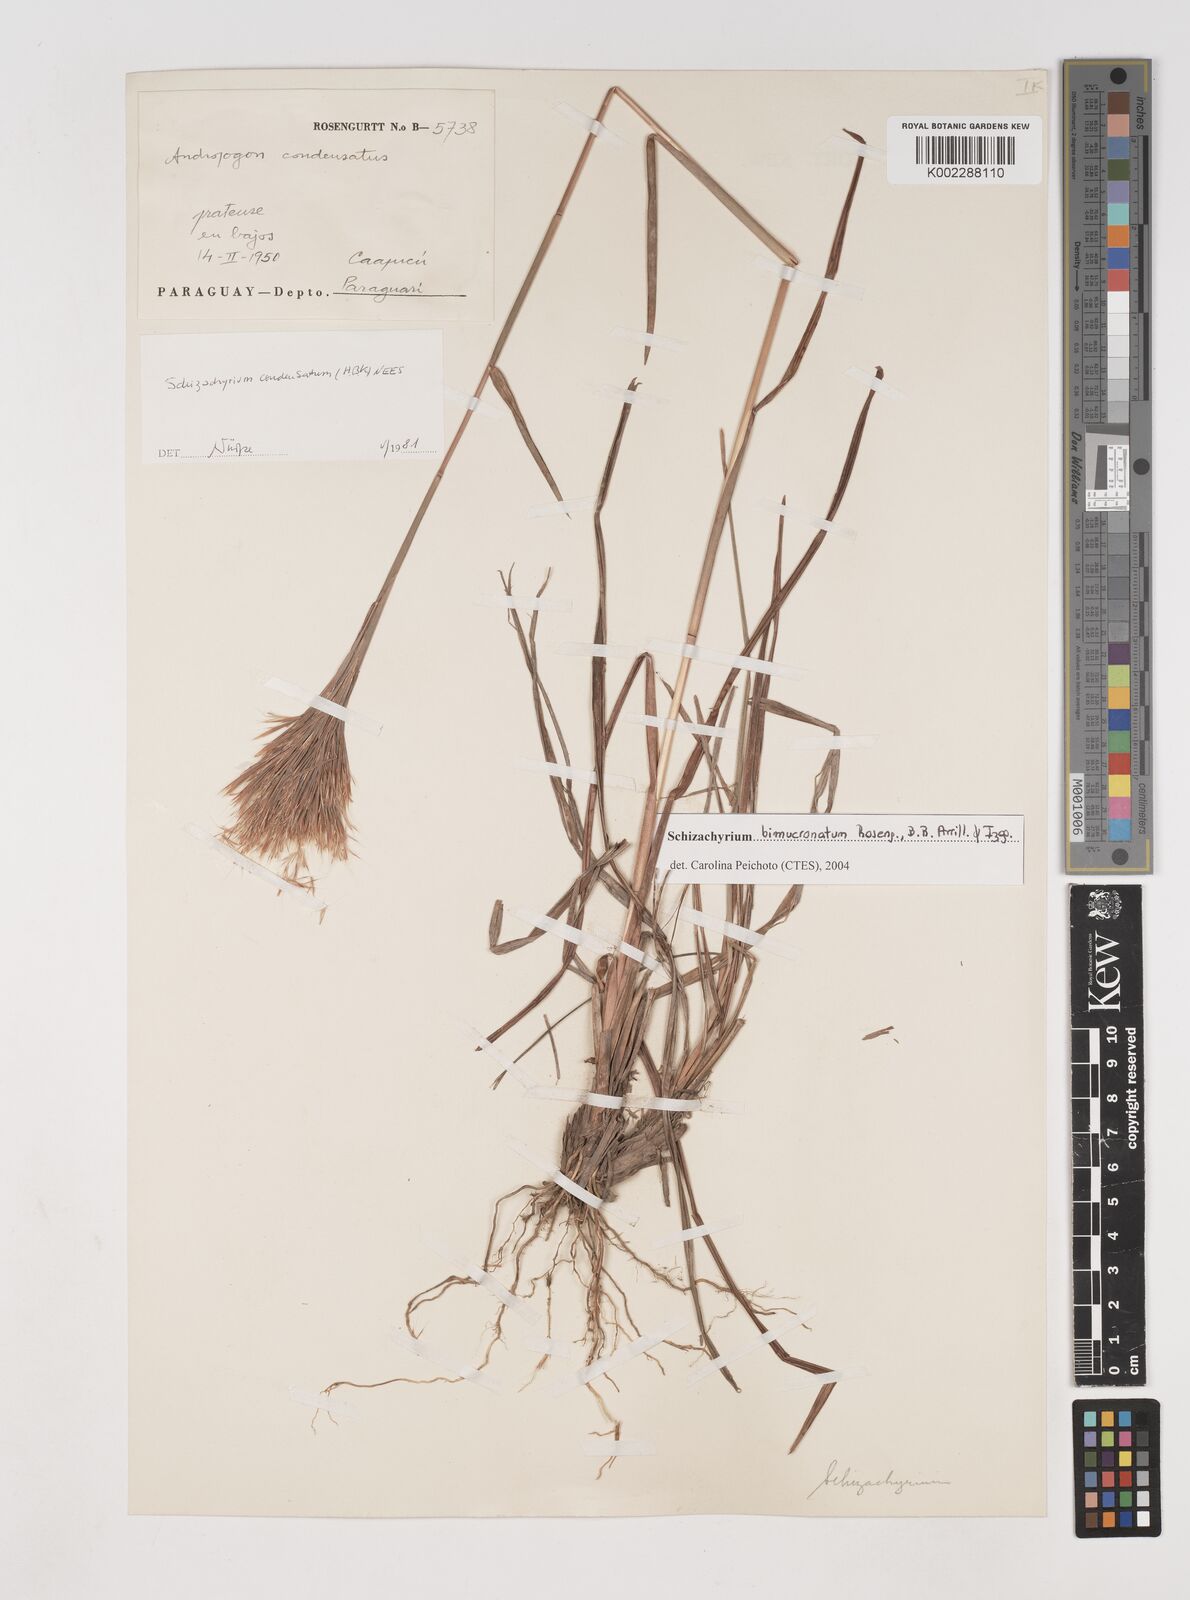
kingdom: Plantae
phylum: Tracheophyta
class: Liliopsida
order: Poales
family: Poaceae
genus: Schizachyrium
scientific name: Schizachyrium condensatum
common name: Bush beardgrass
